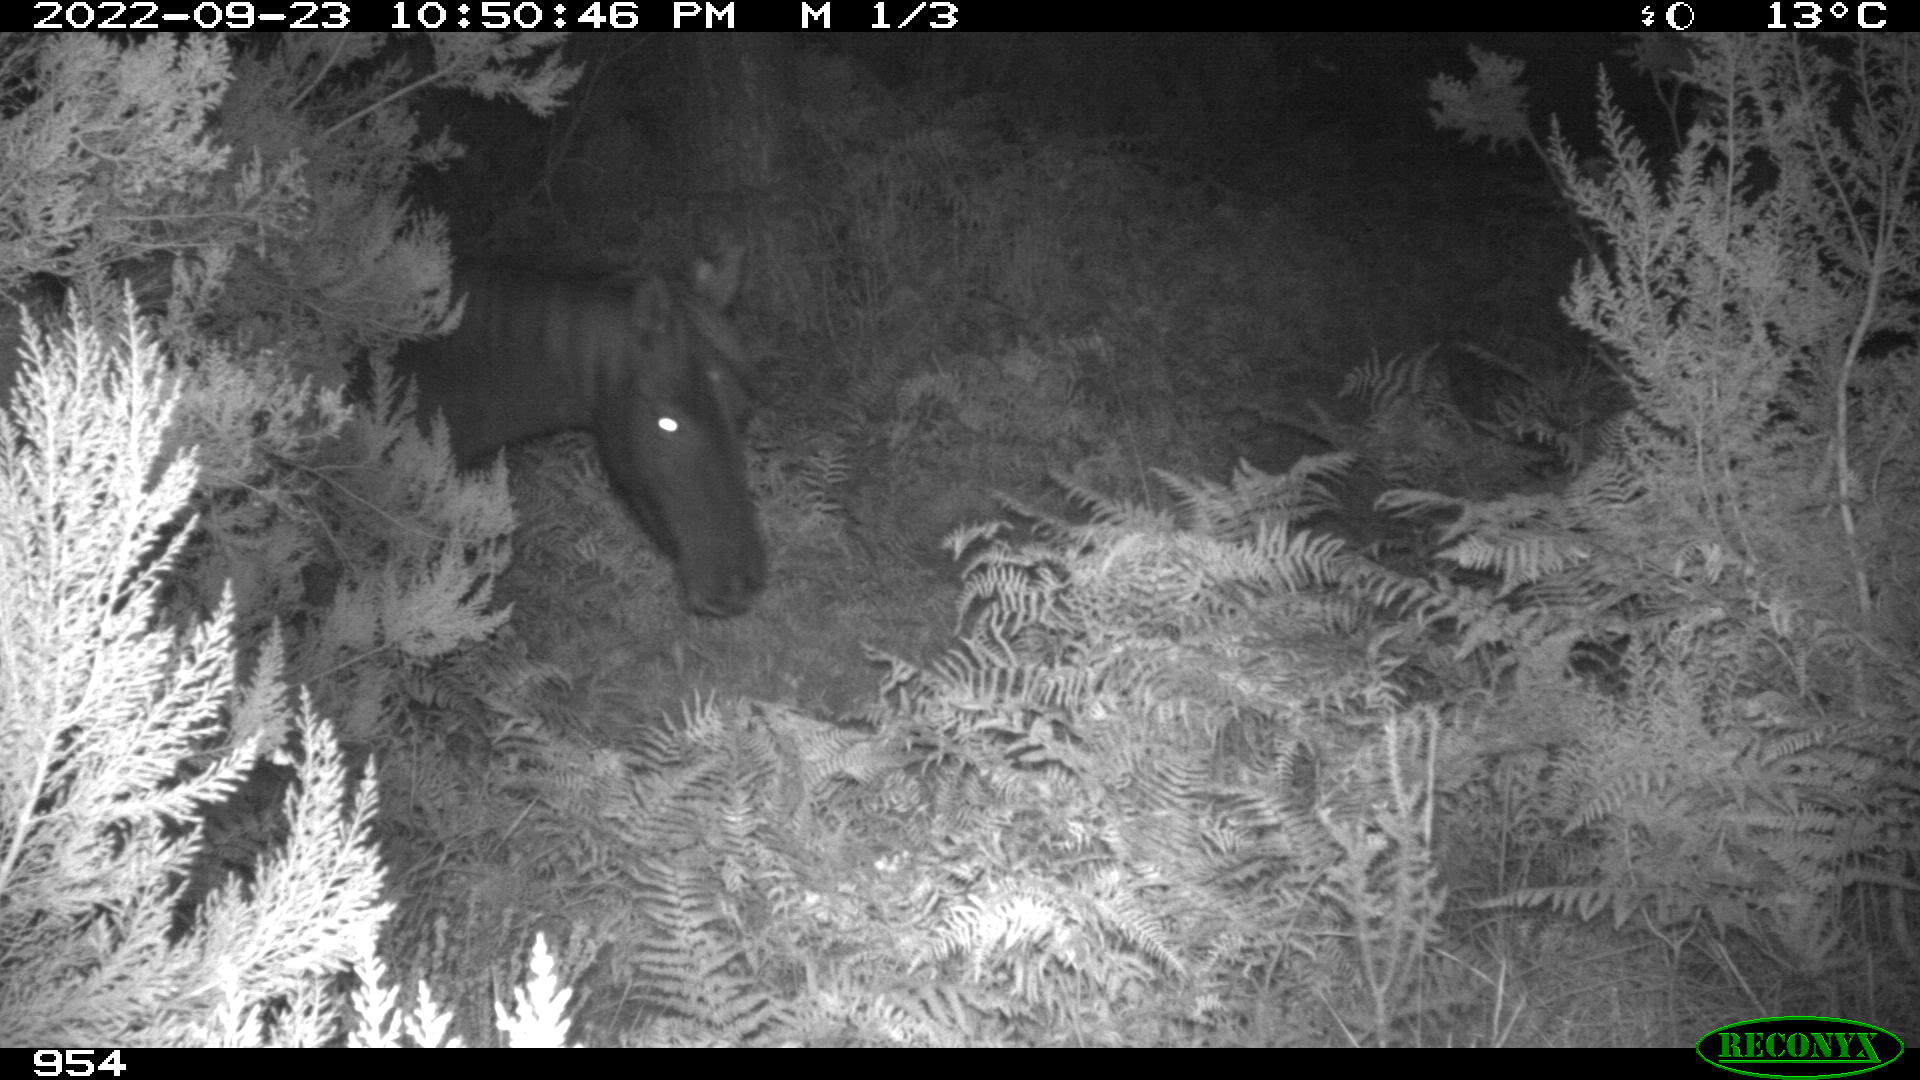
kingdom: Animalia
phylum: Chordata
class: Mammalia
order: Perissodactyla
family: Equidae
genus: Equus
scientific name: Equus caballus
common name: Horse
